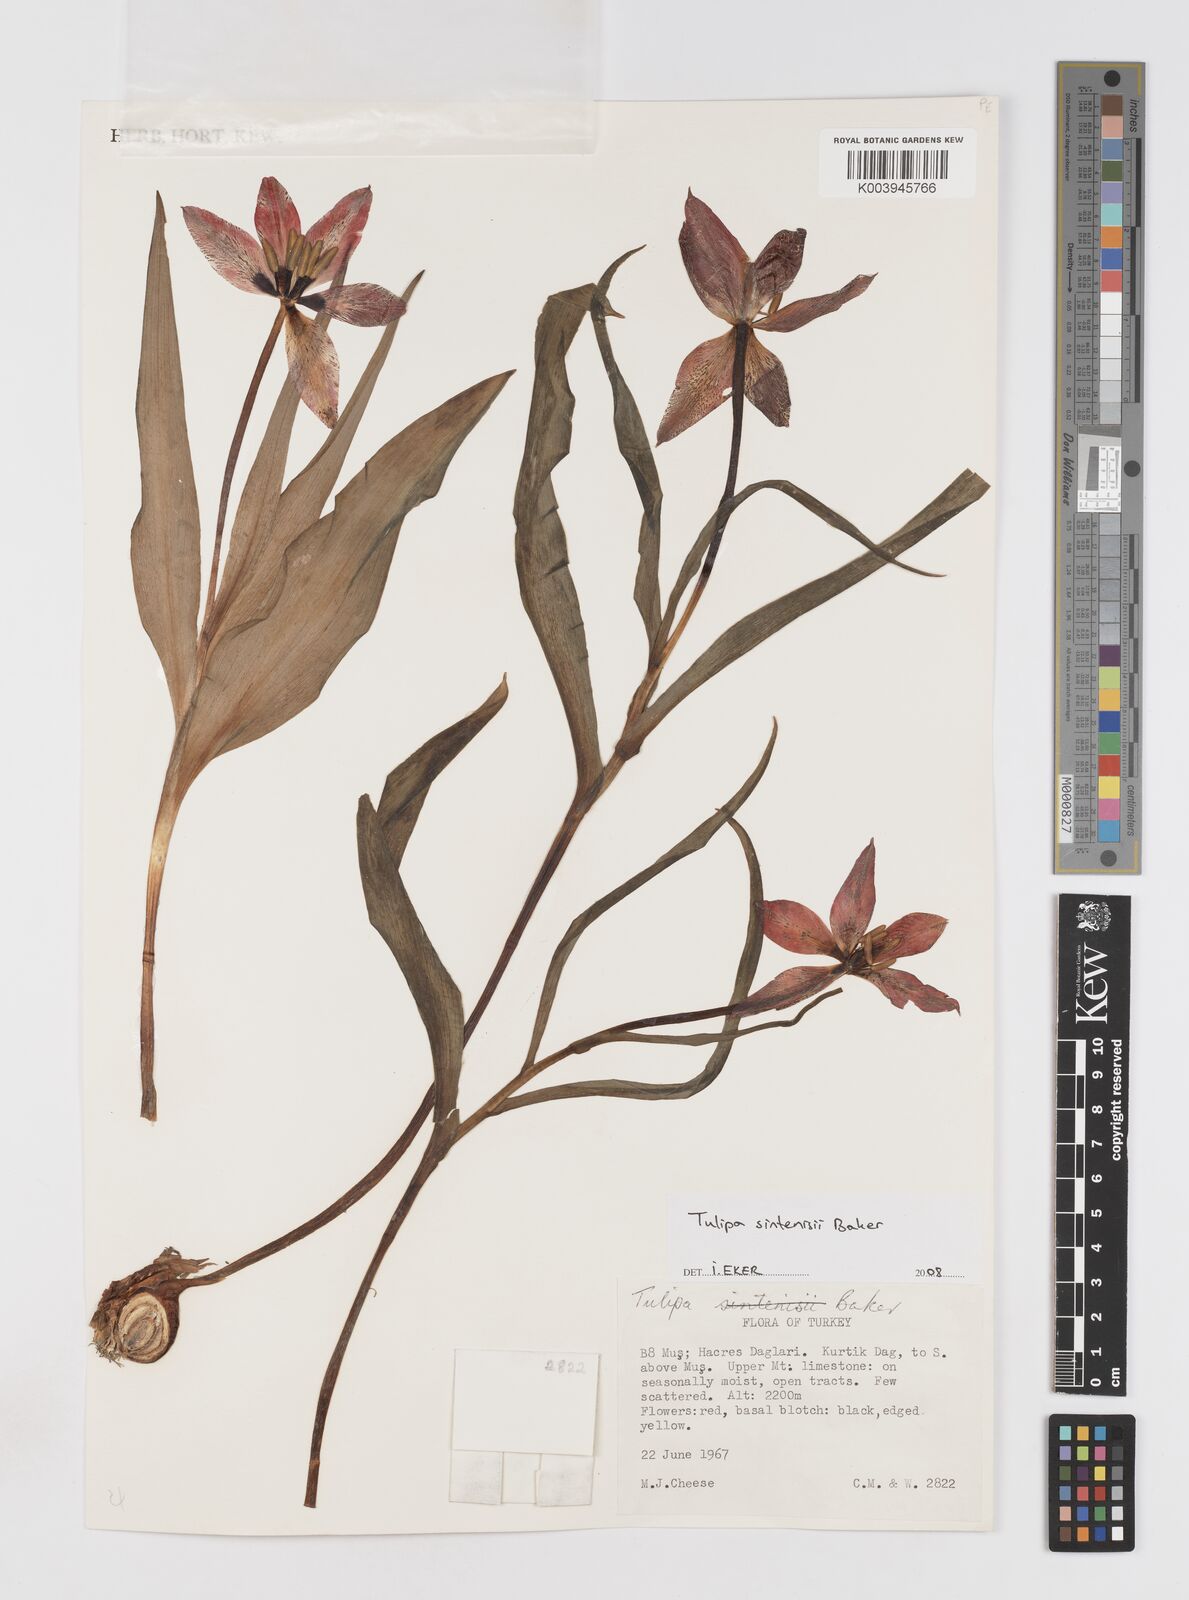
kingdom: Plantae
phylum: Tracheophyta
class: Liliopsida
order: Liliales
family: Liliaceae
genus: Tulipa
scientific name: Tulipa foliosa
